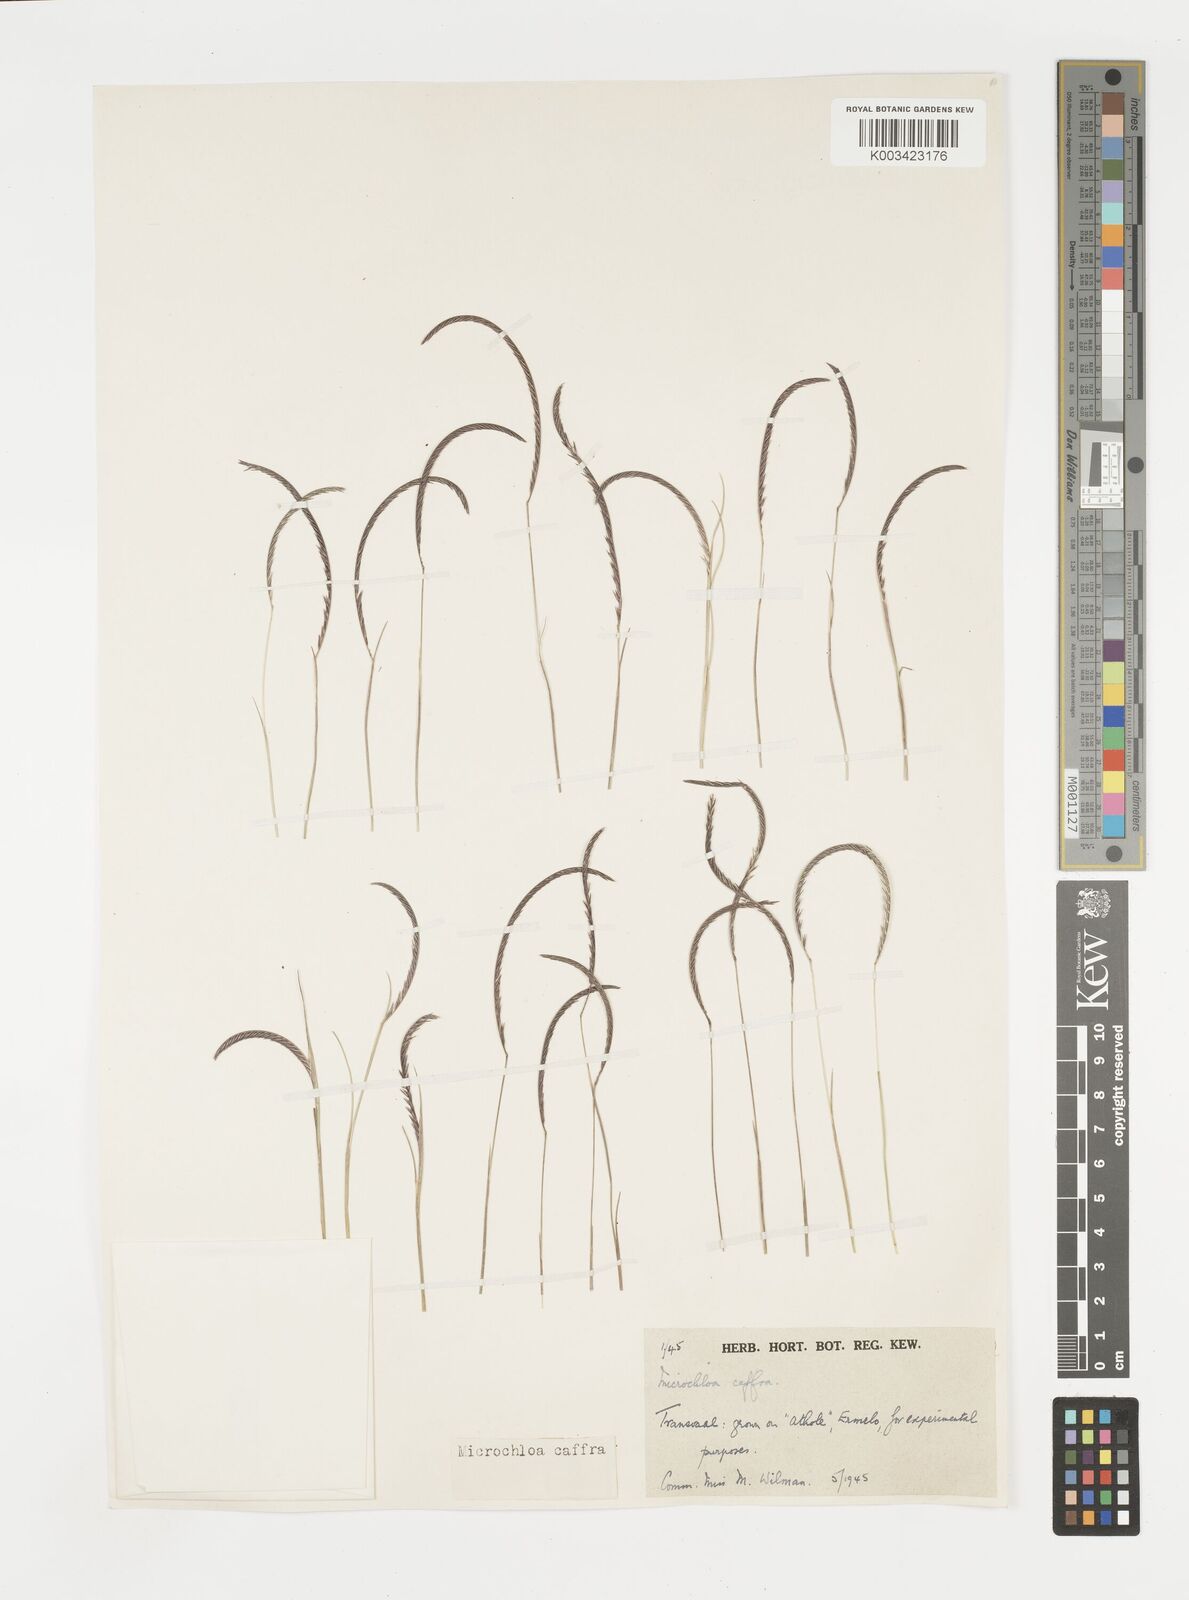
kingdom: Plantae
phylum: Tracheophyta
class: Liliopsida
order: Poales
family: Poaceae
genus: Microchloa
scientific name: Microchloa caffra
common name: Pincushion grass
